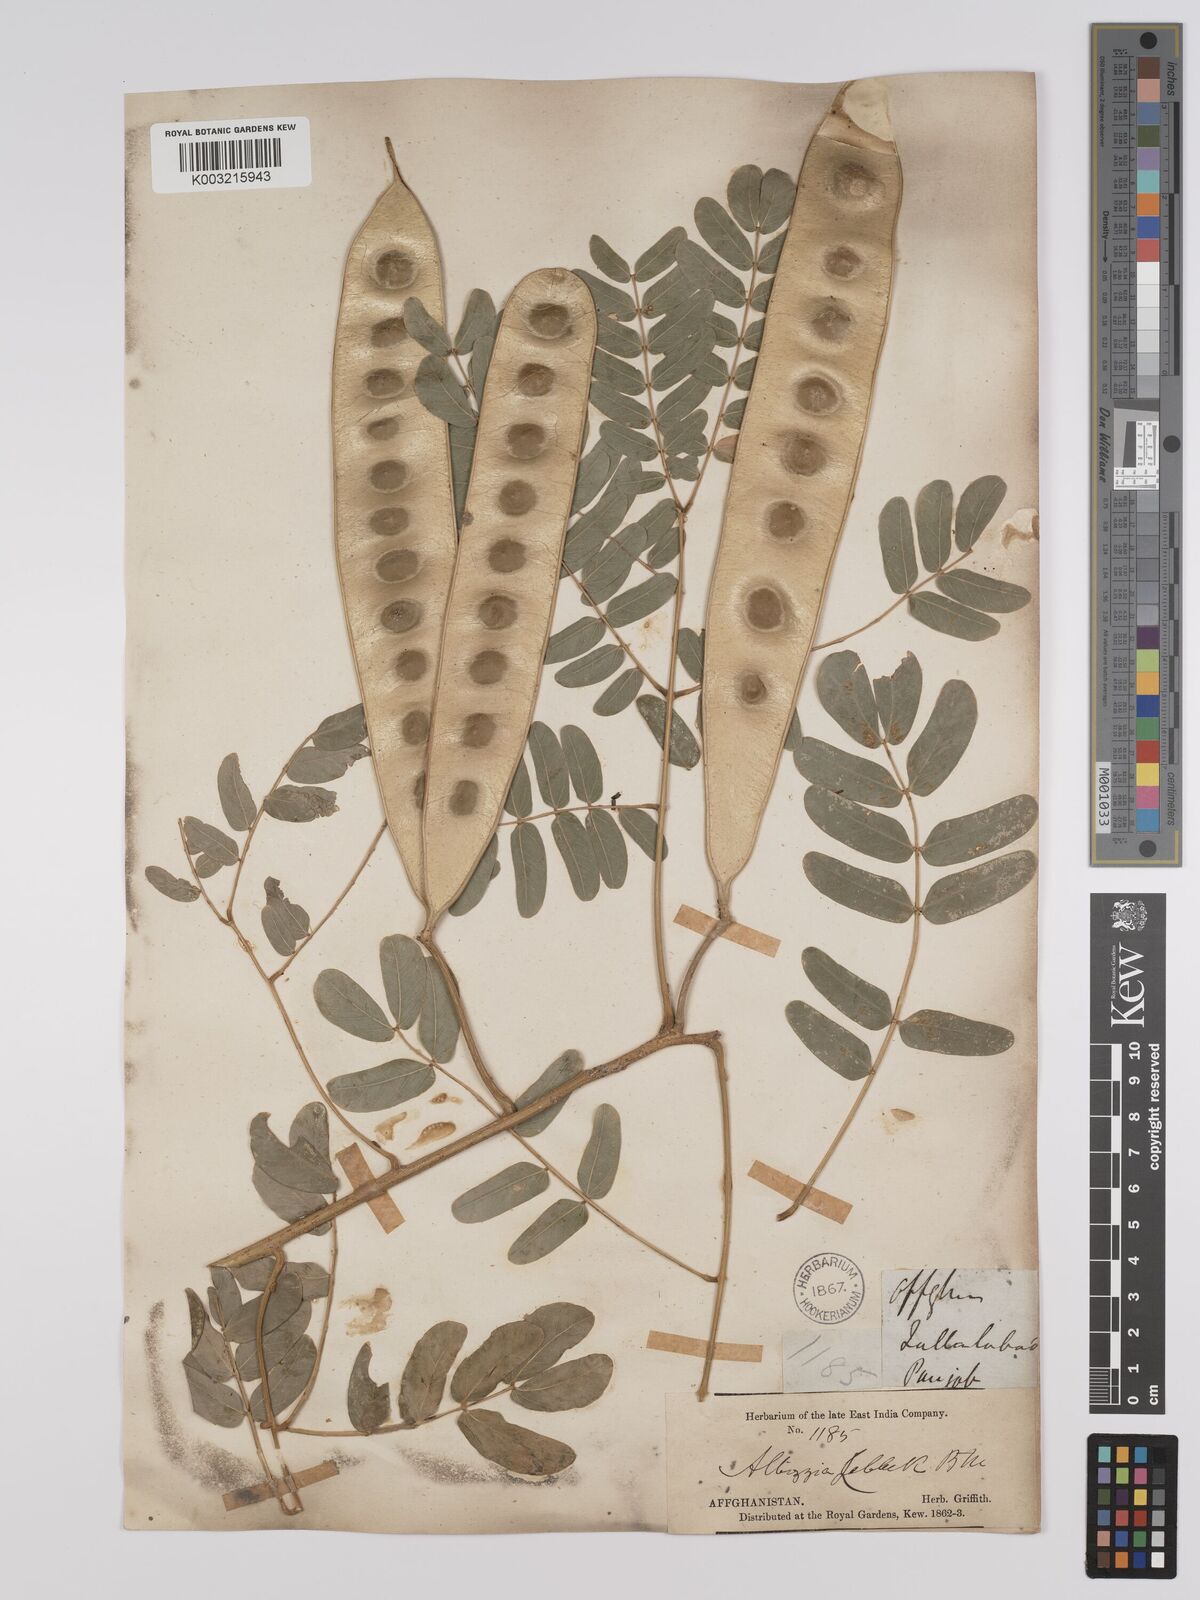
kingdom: Plantae
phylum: Tracheophyta
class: Magnoliopsida
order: Fabales
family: Fabaceae
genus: Albizia
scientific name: Albizia lebbeck
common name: Woman's tongue
